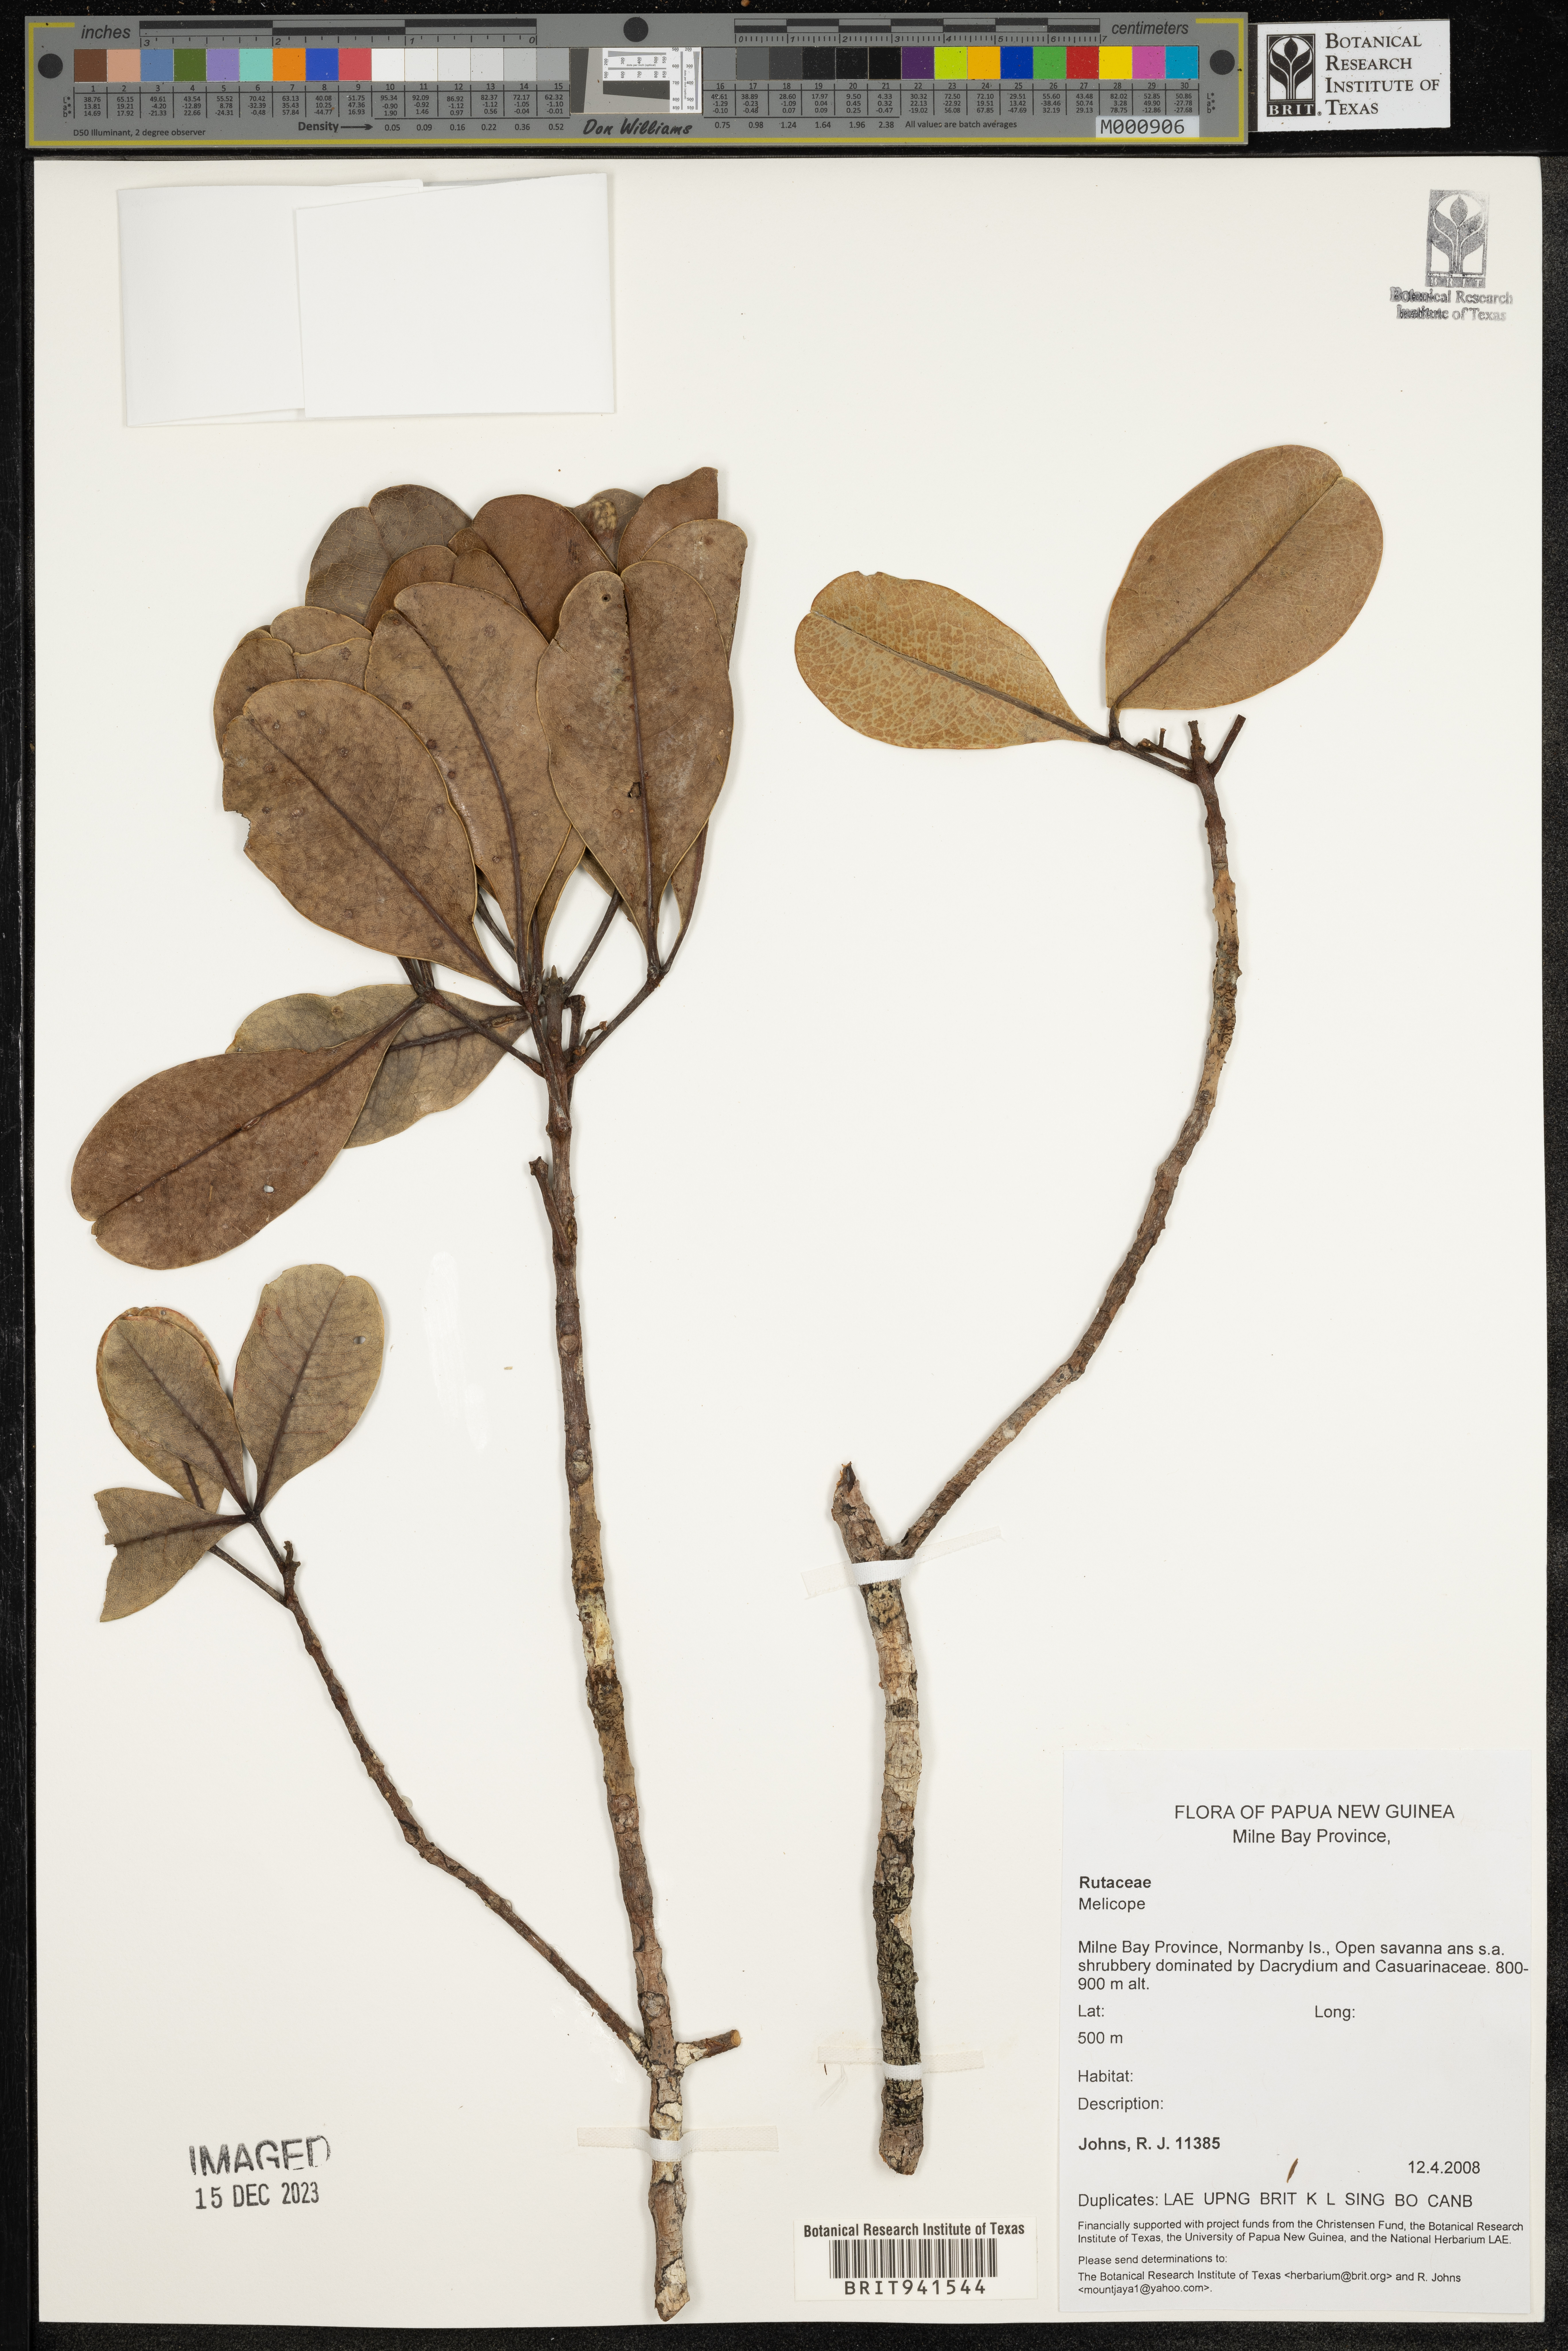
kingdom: Plantae
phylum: Tracheophyta
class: Magnoliopsida
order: Sapindales
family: Rutaceae
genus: Melicope
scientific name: Melicope
